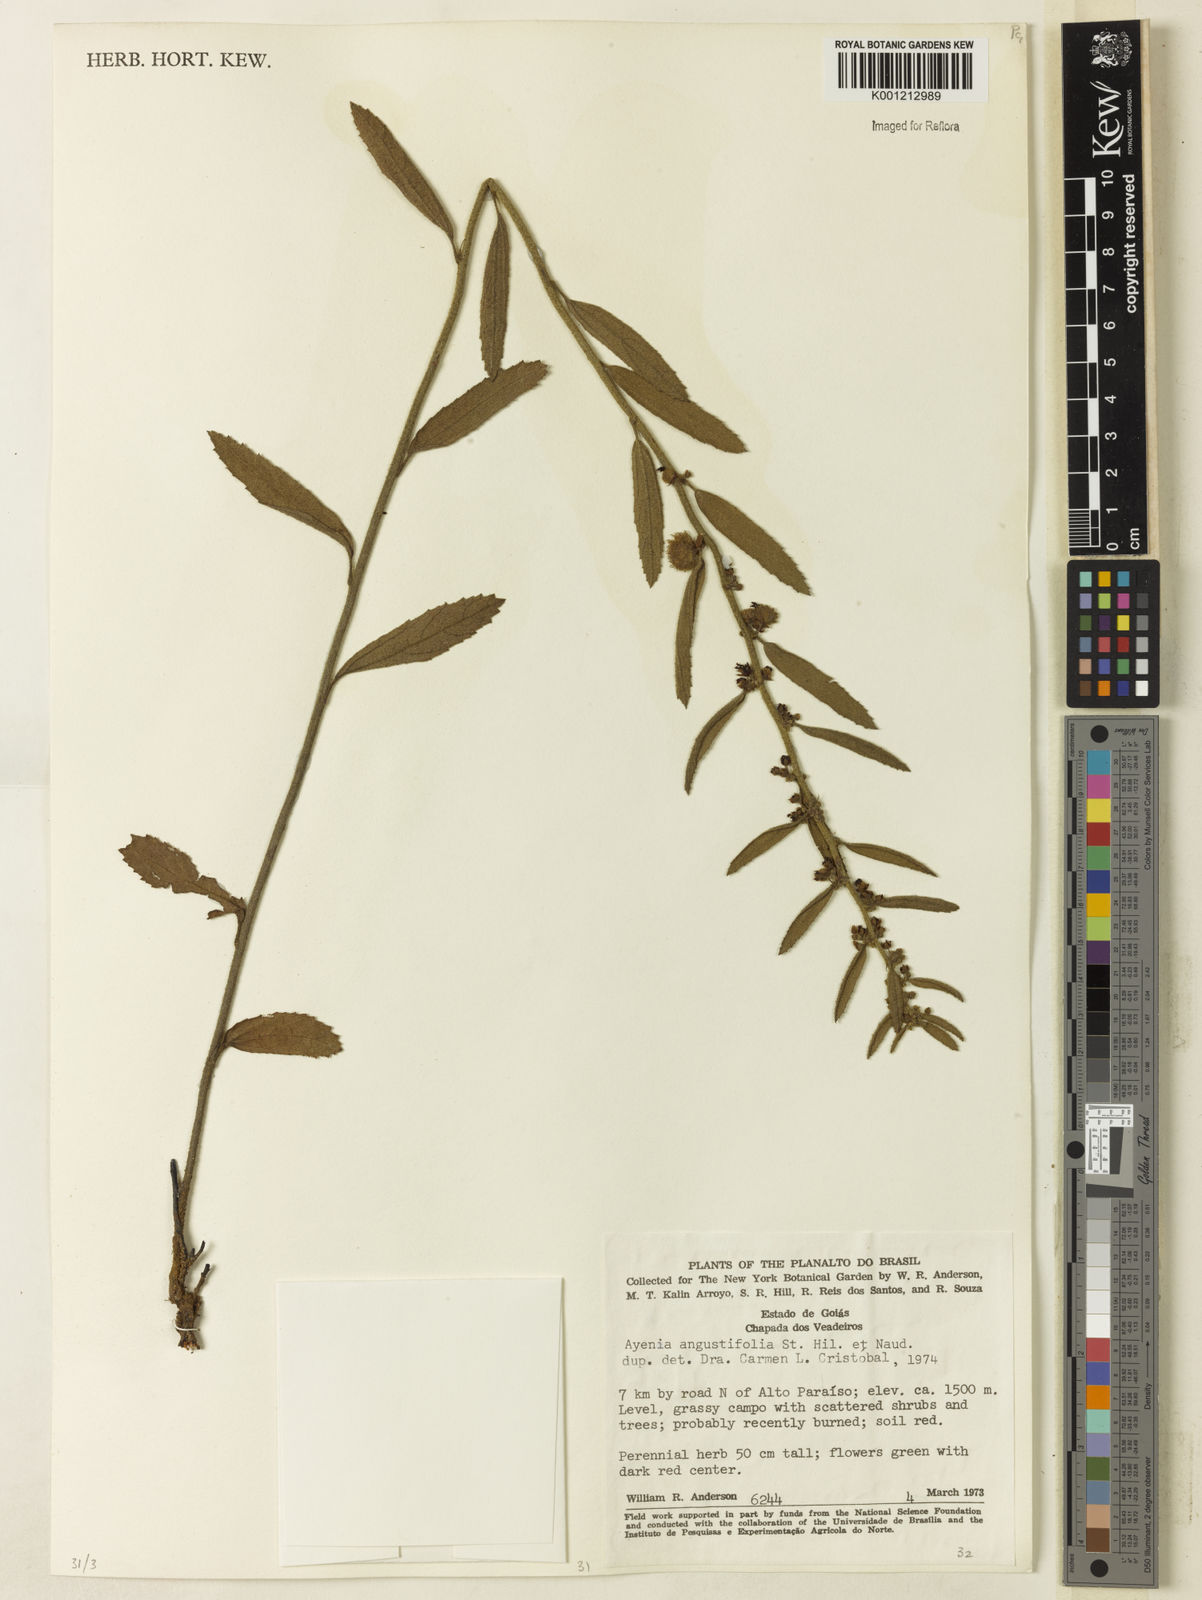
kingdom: Plantae
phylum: Tracheophyta
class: Magnoliopsida
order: Malvales
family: Malvaceae
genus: Ayenia
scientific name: Ayenia angustifolia
